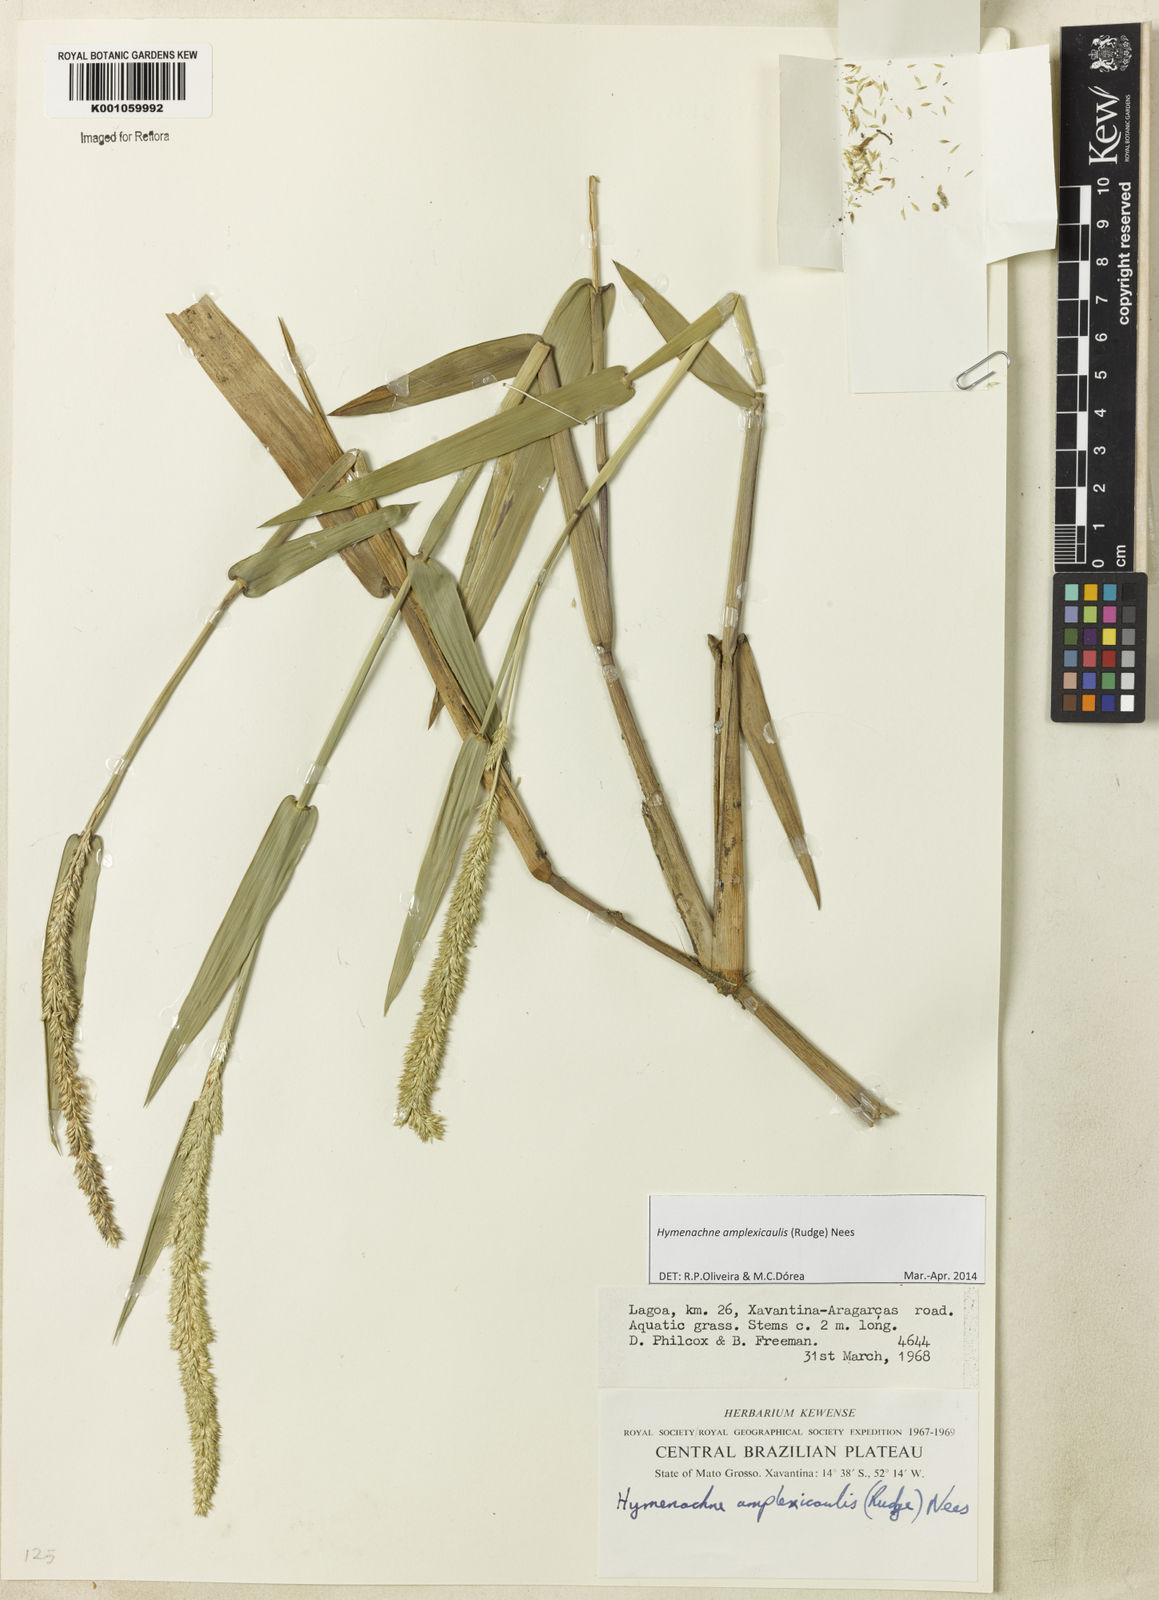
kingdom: Plantae
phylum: Tracheophyta
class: Liliopsida
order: Poales
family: Poaceae
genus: Hymenachne
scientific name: Hymenachne amplexicaulis
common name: Olive hymenachne
